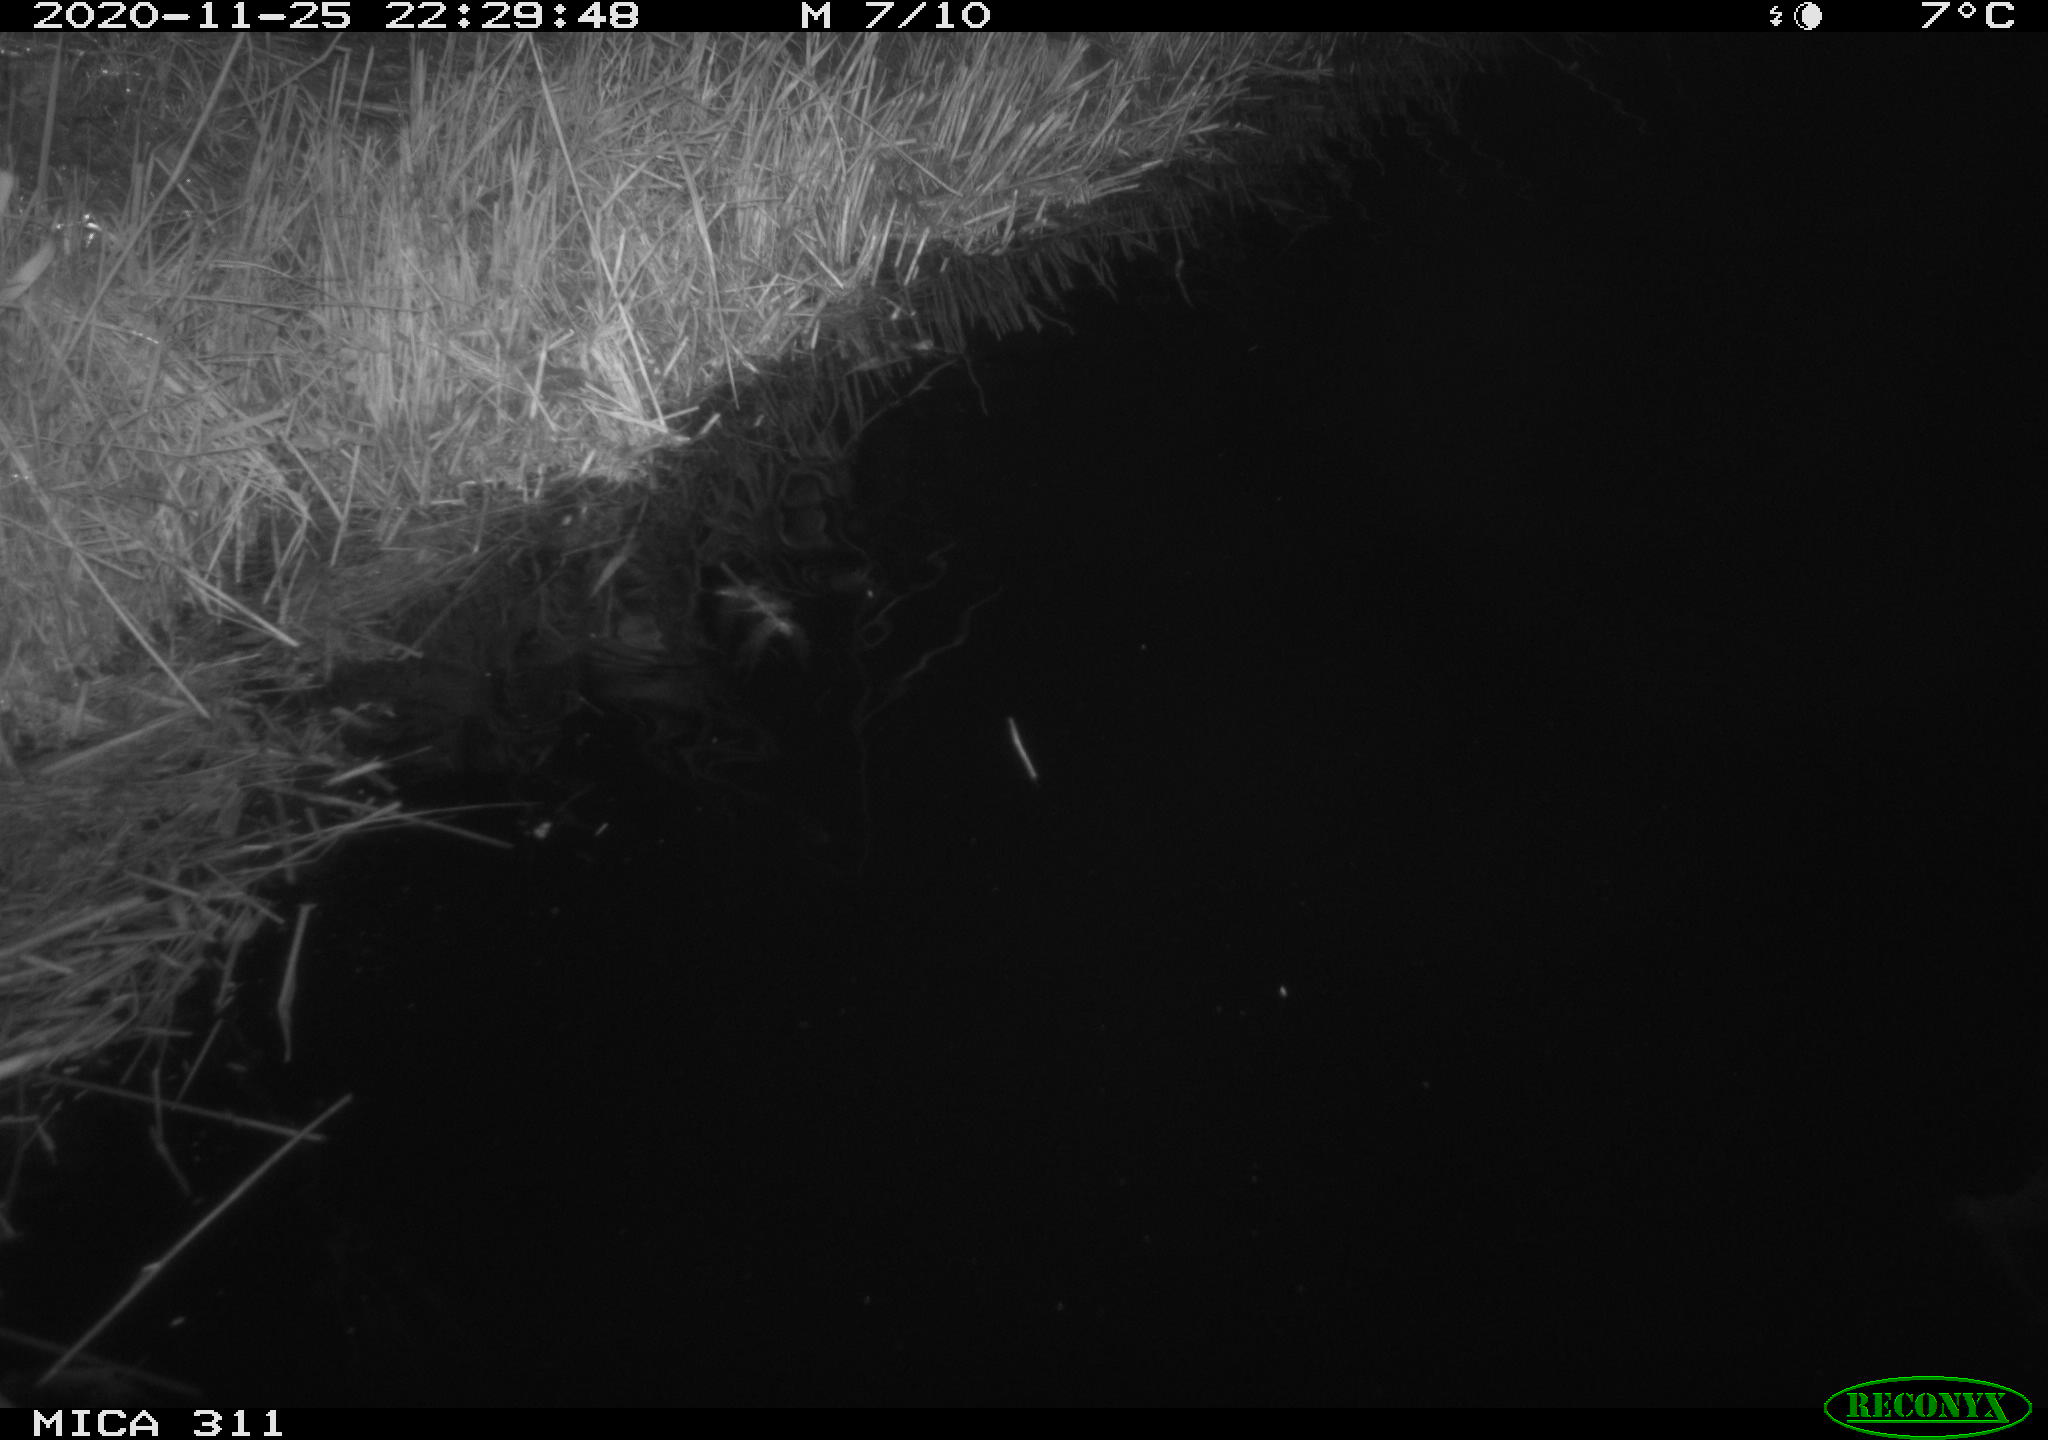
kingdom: Animalia
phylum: Chordata
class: Mammalia
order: Rodentia
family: Muridae
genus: Rattus
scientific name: Rattus norvegicus
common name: Brown rat
